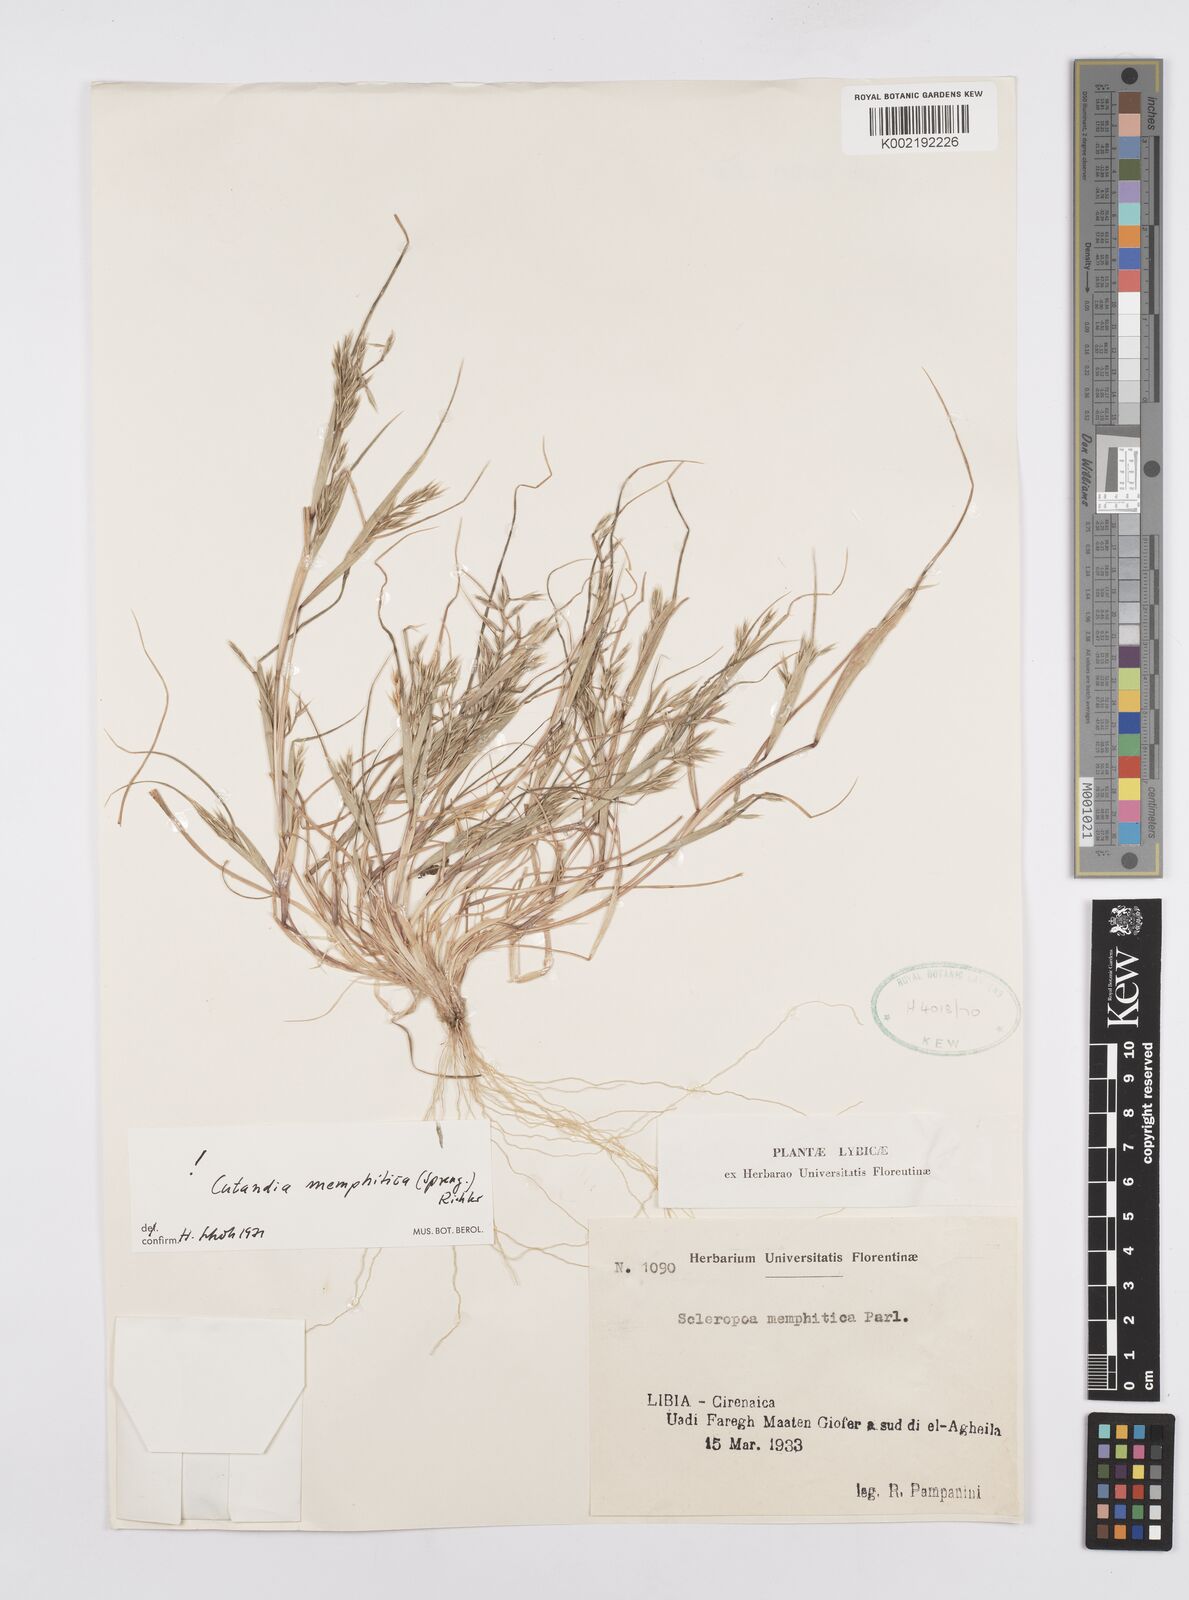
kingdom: Plantae
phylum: Tracheophyta
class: Liliopsida
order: Poales
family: Poaceae
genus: Cutandia
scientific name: Cutandia memphitica
